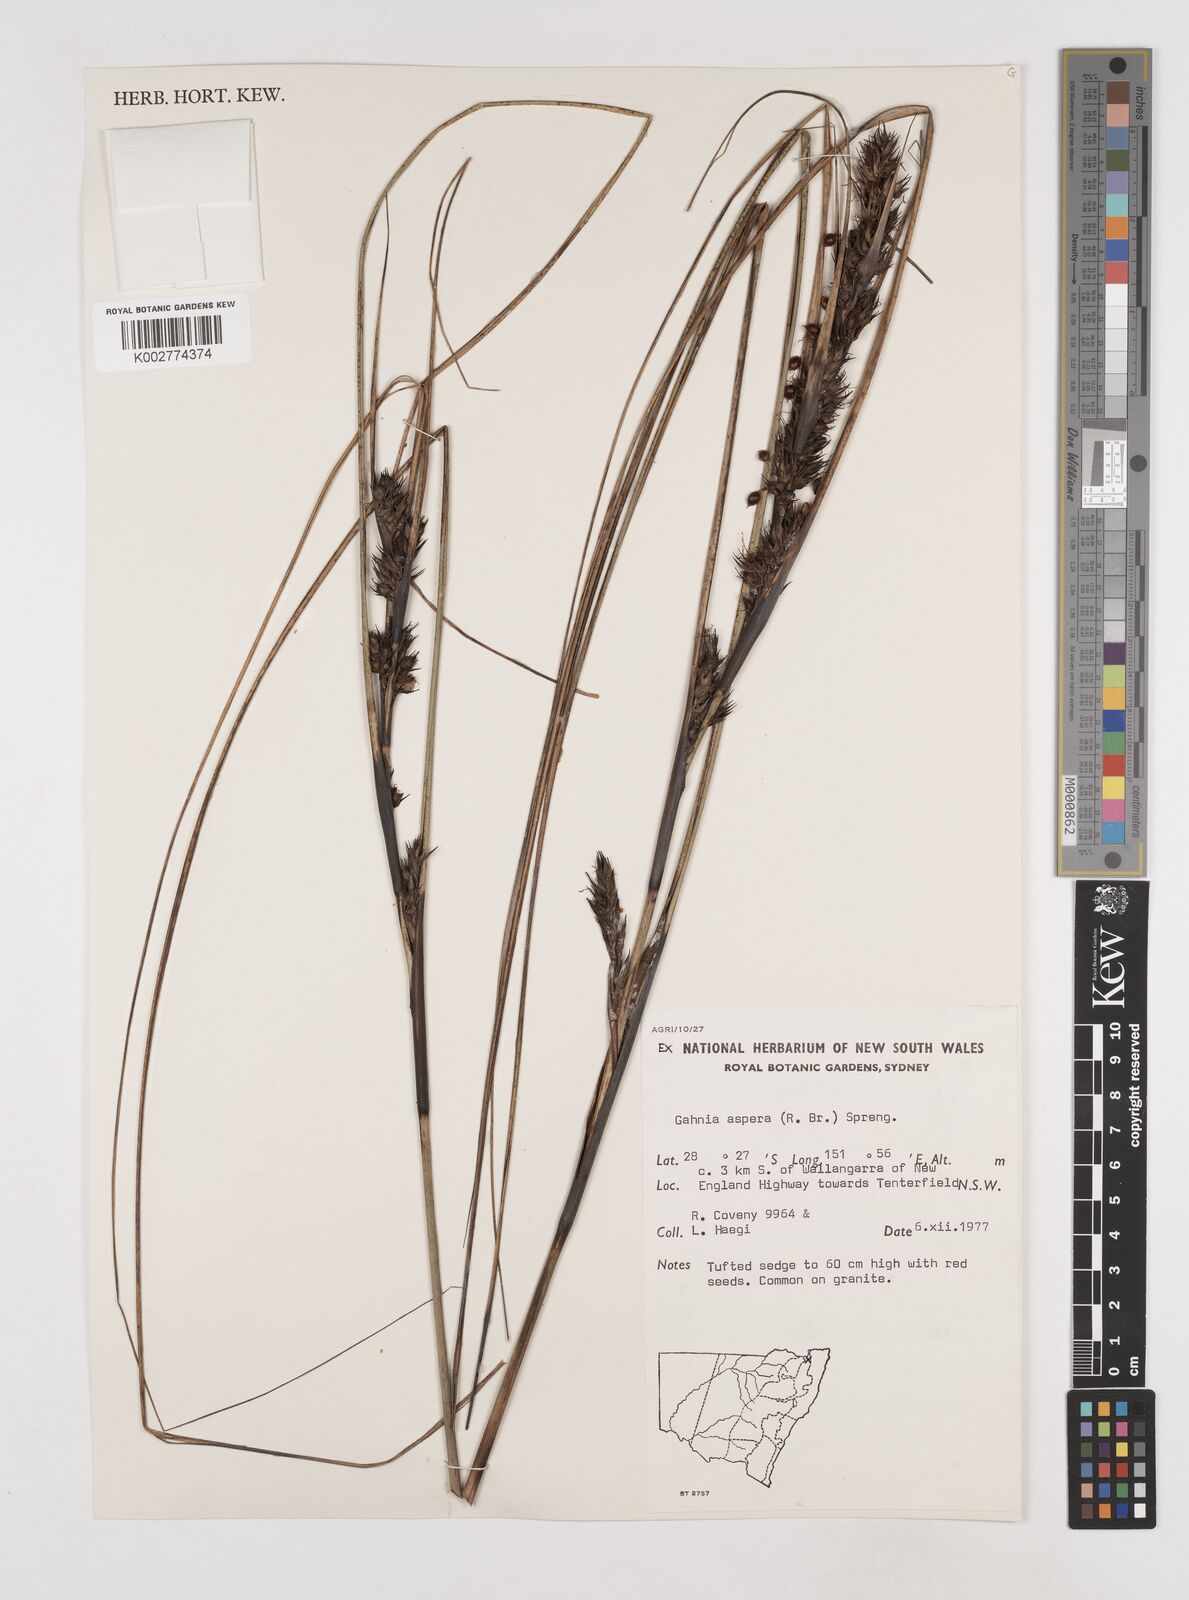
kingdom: Plantae
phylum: Tracheophyta
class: Liliopsida
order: Poales
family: Cyperaceae
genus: Gahnia
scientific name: Gahnia aspera
